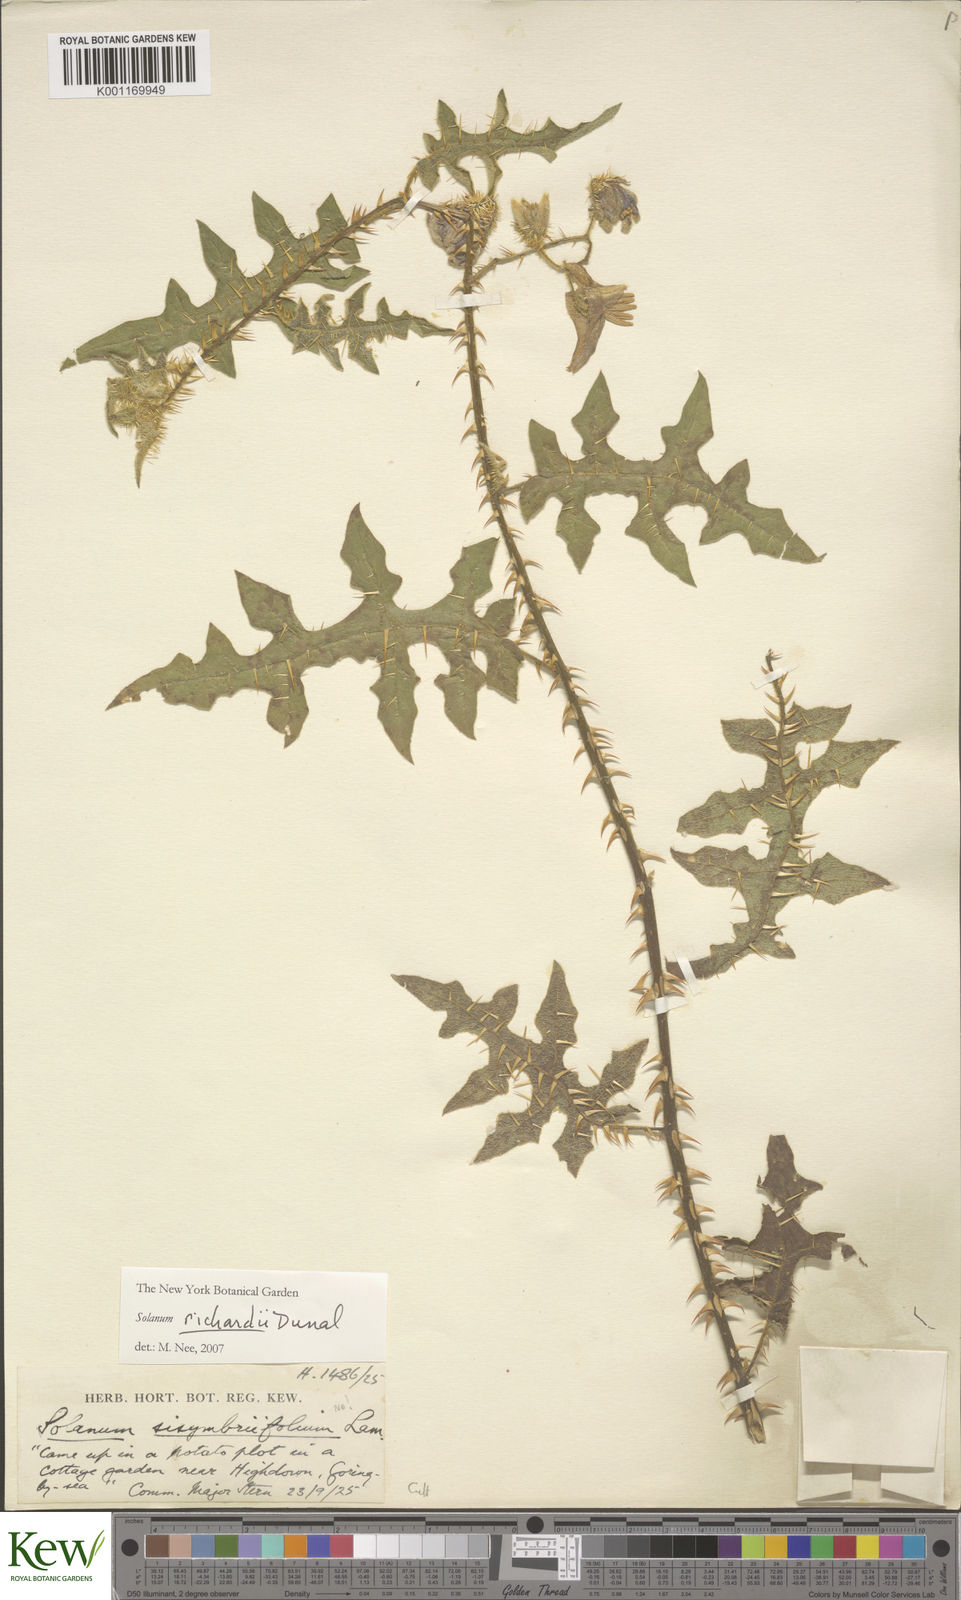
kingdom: Plantae
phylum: Tracheophyta
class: Magnoliopsida
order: Solanales
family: Solanaceae
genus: Solanum
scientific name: Solanum richardii
